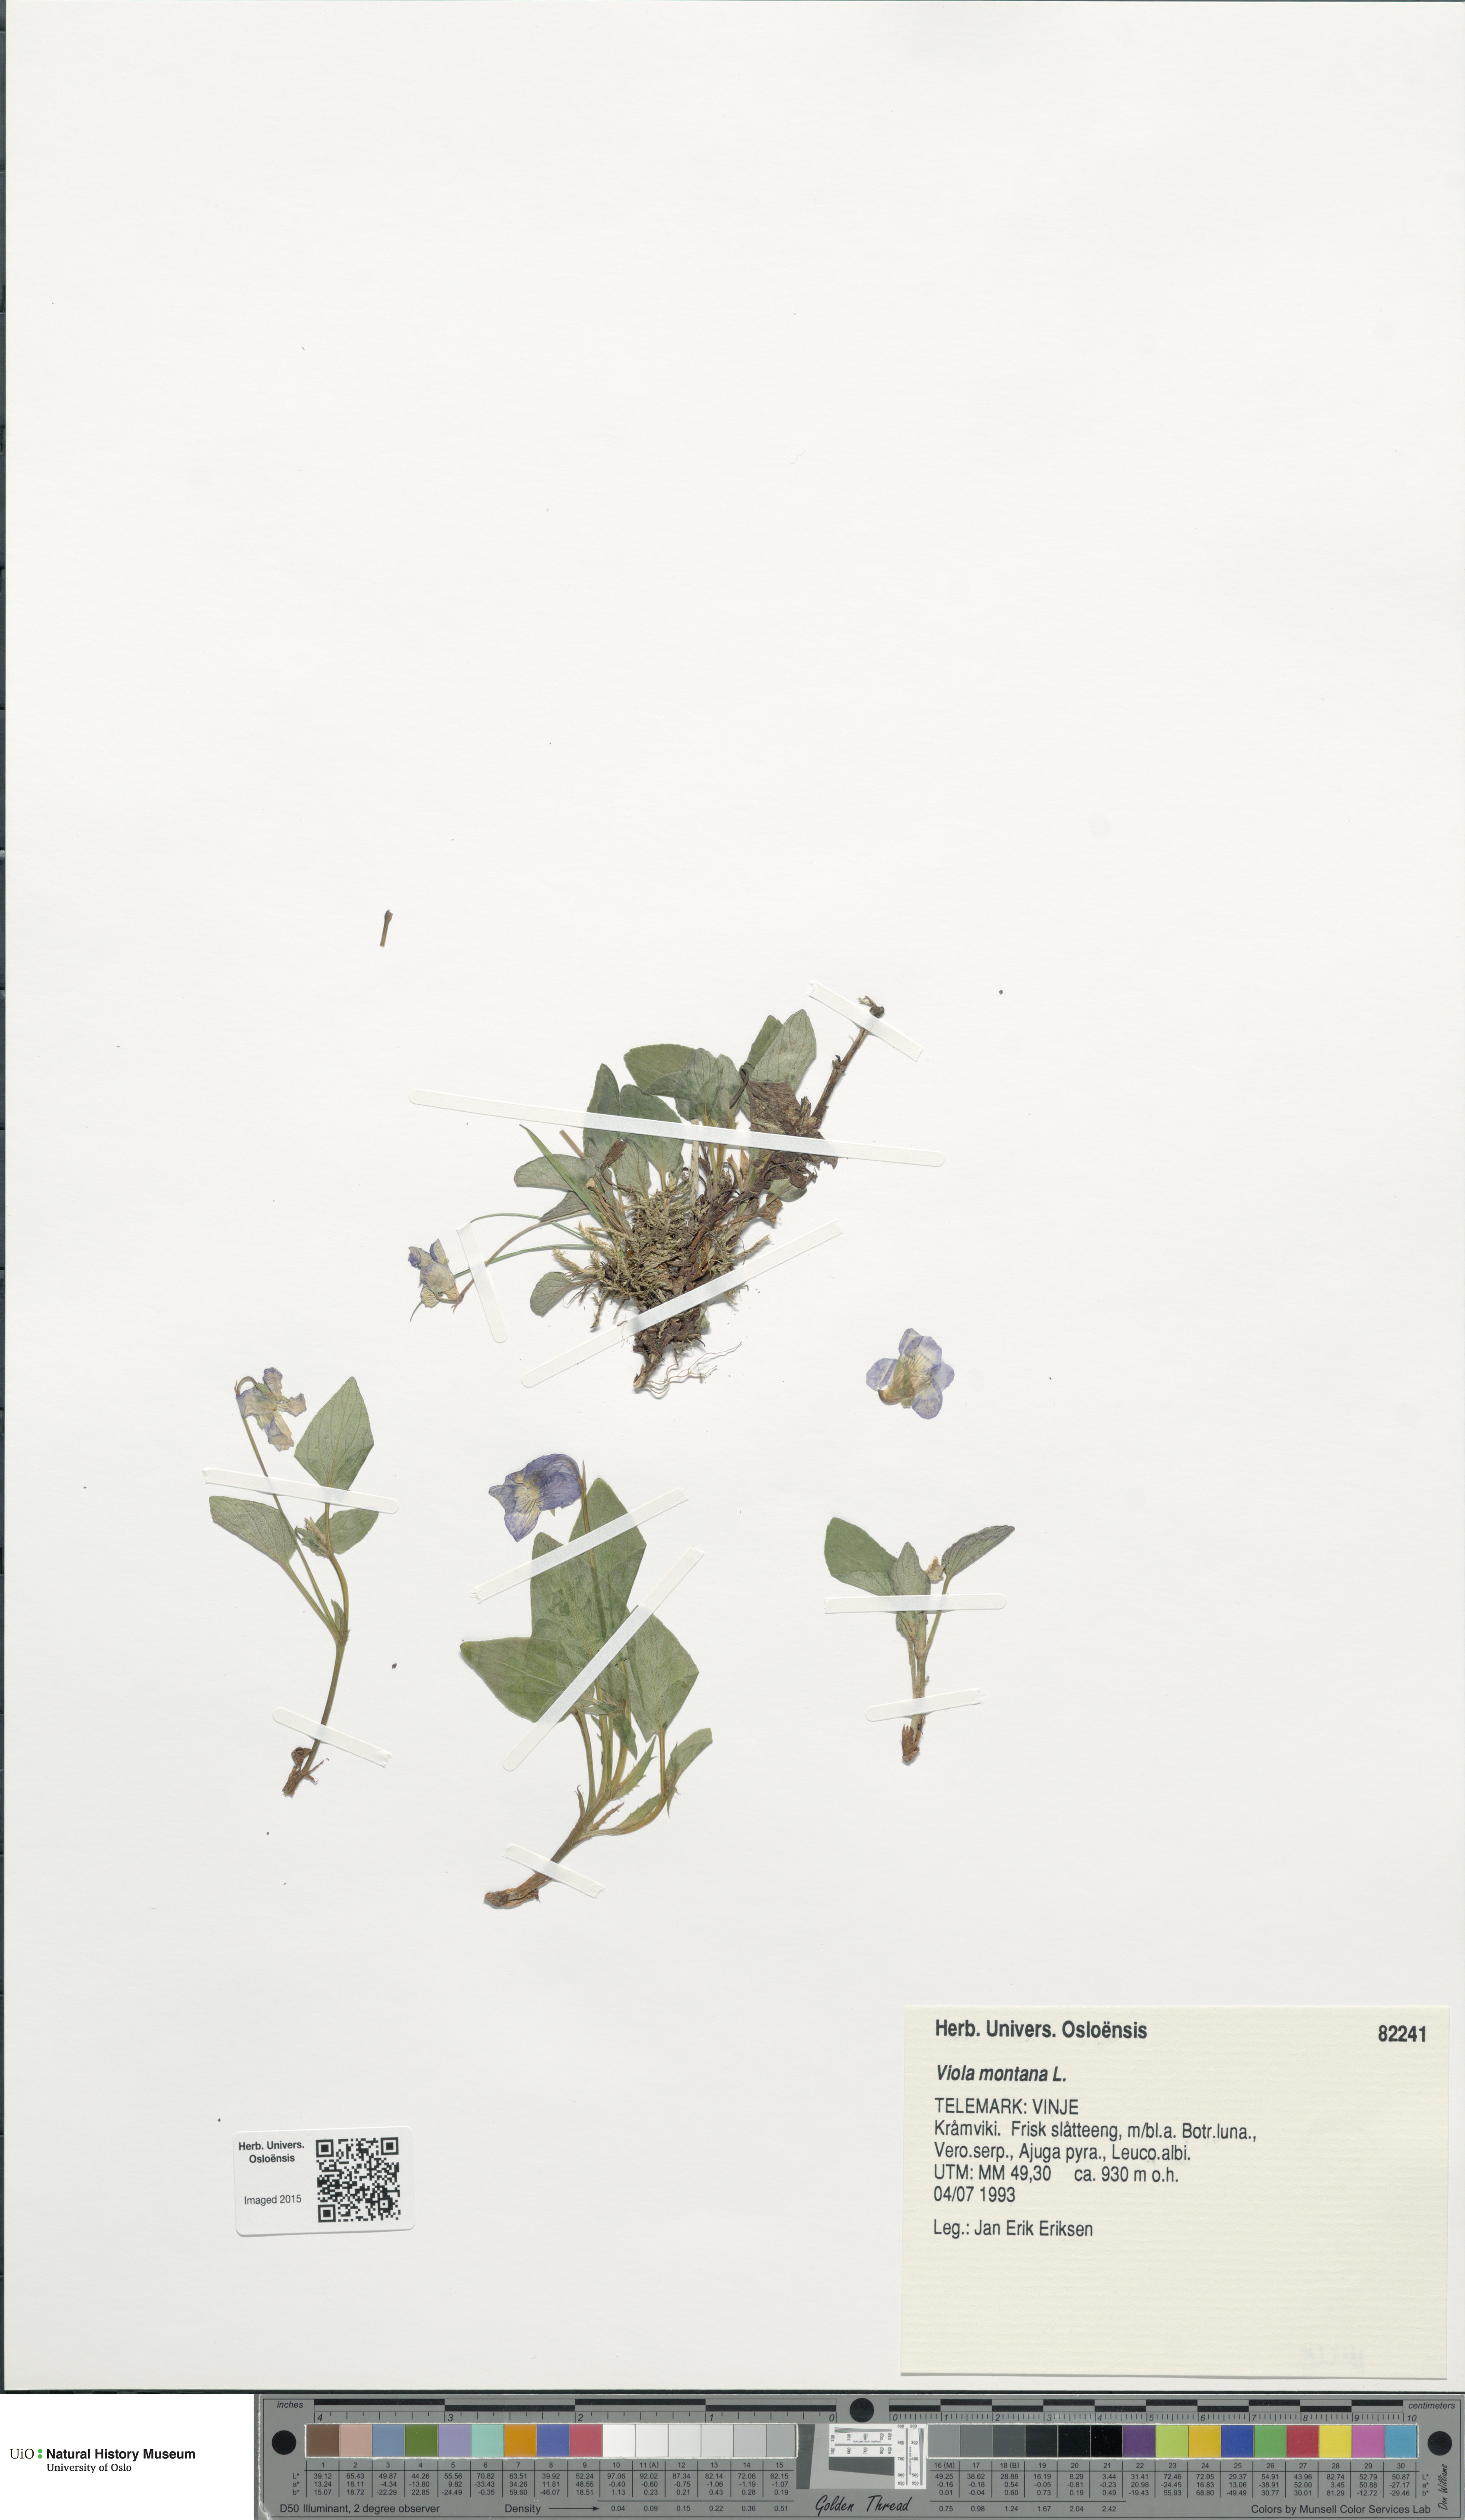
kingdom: Plantae
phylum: Tracheophyta
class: Magnoliopsida
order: Malpighiales
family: Violaceae
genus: Viola
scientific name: Viola ruppii
